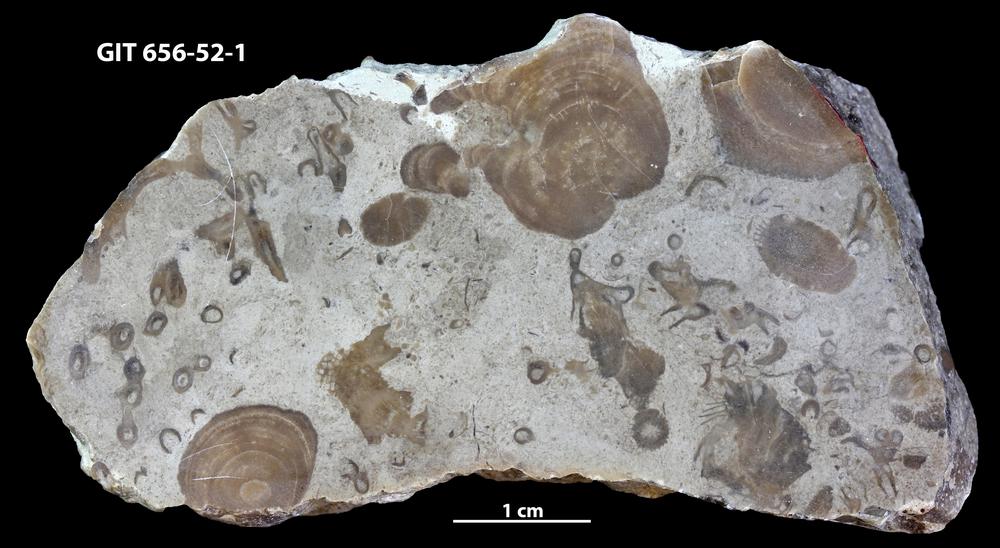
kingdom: Animalia
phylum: Porifera
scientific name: Porifera
